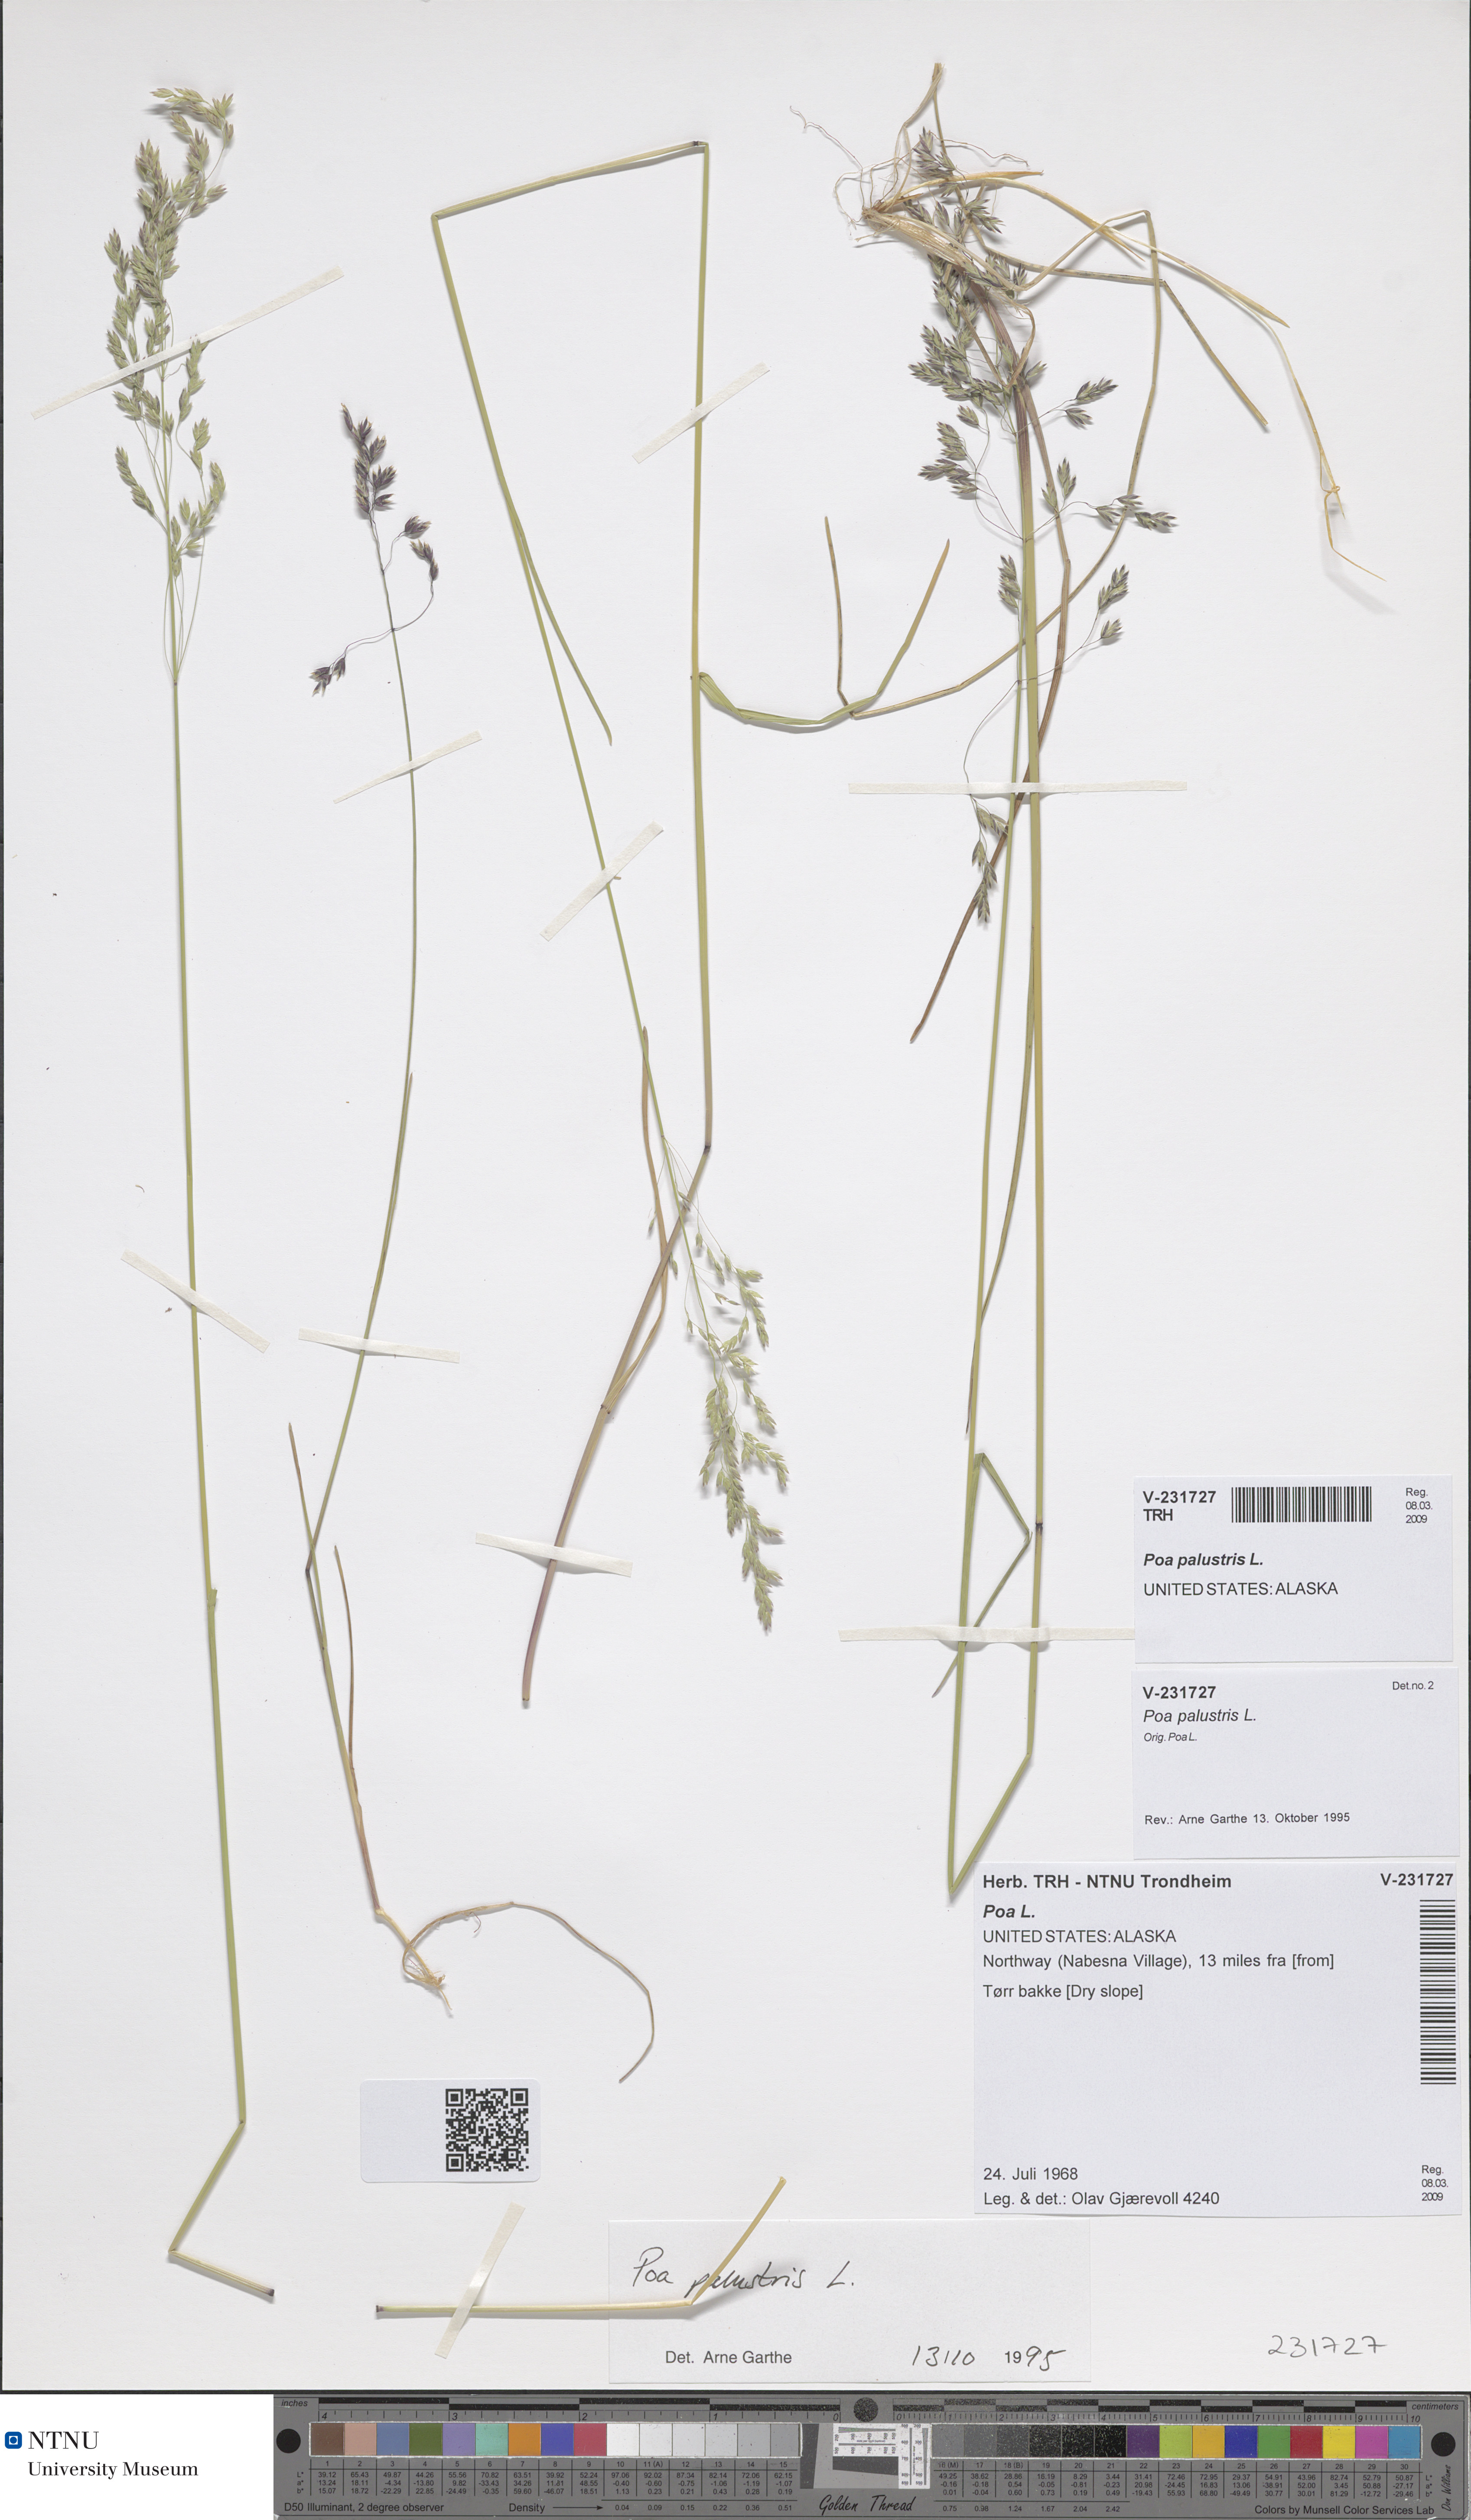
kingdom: Plantae
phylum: Tracheophyta
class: Liliopsida
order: Poales
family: Poaceae
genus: Poa
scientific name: Poa palustris
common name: Swamp meadow-grass
